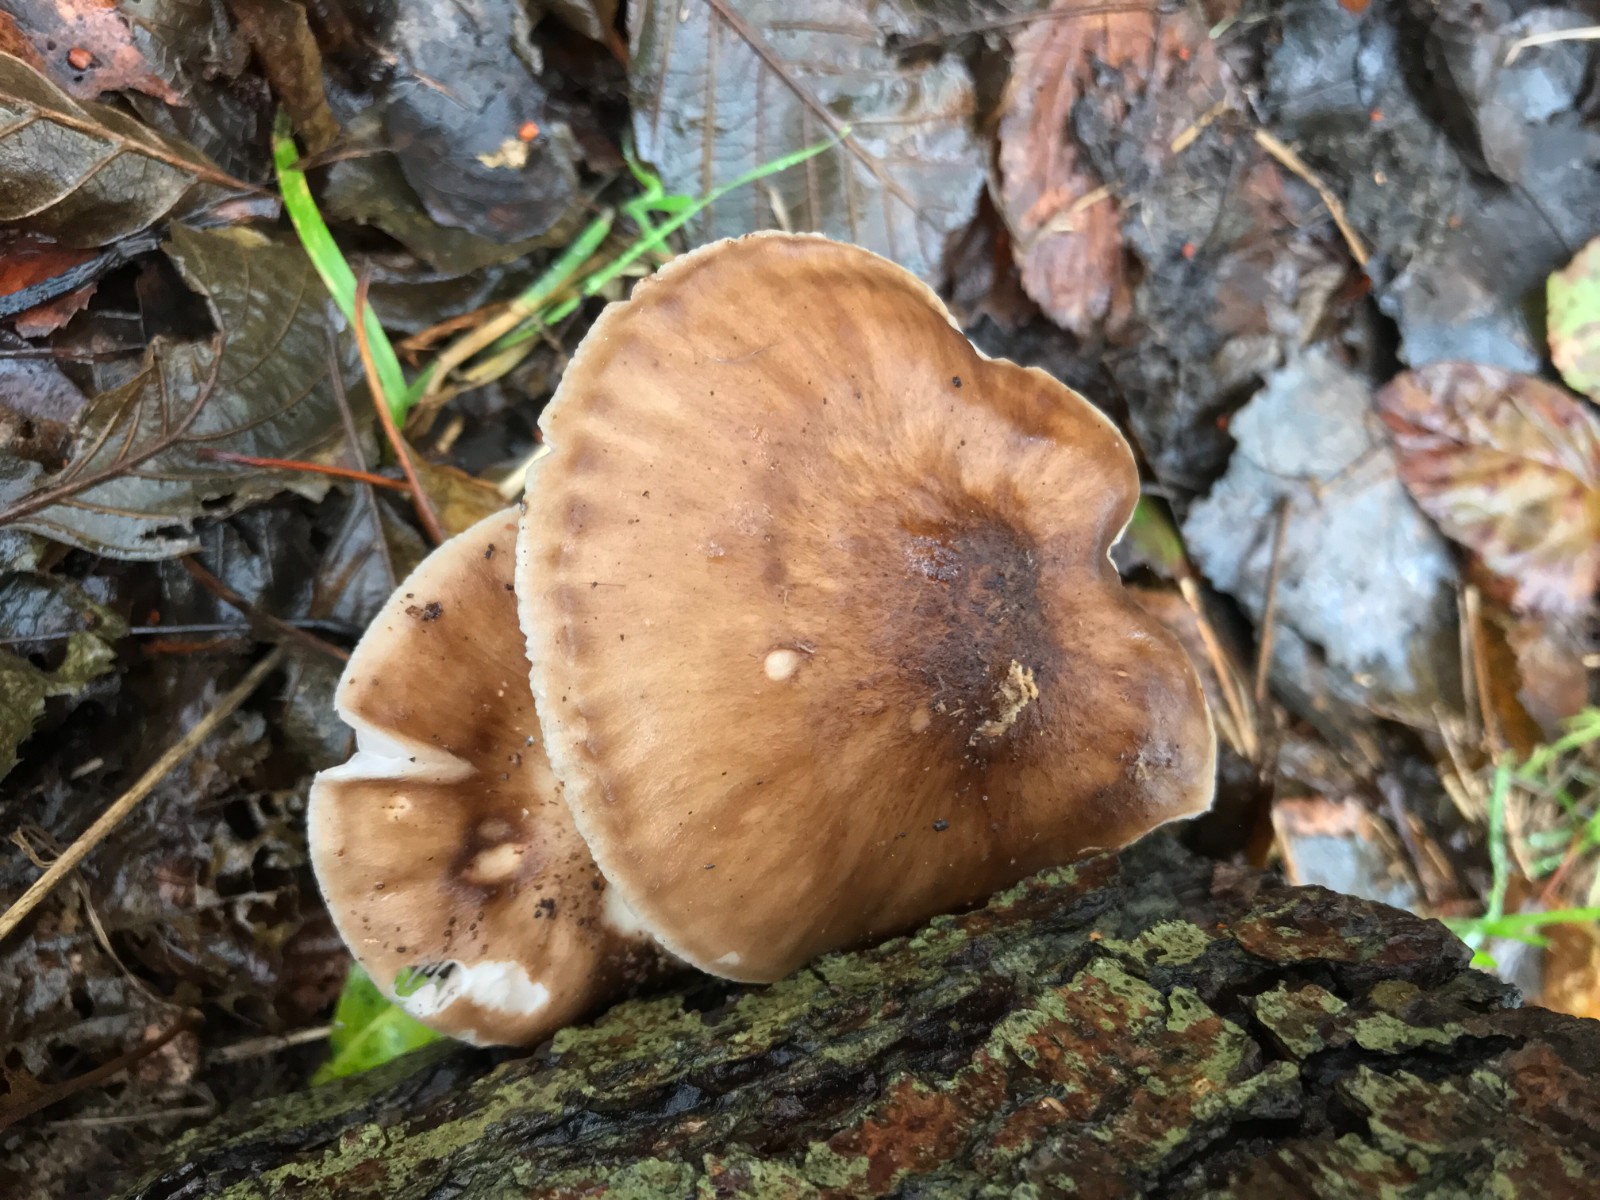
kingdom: Fungi
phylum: Basidiomycota
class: Agaricomycetes
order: Agaricales
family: Pluteaceae
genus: Pluteus
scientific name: Pluteus cervinus
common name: sodfarvet skærmhat
